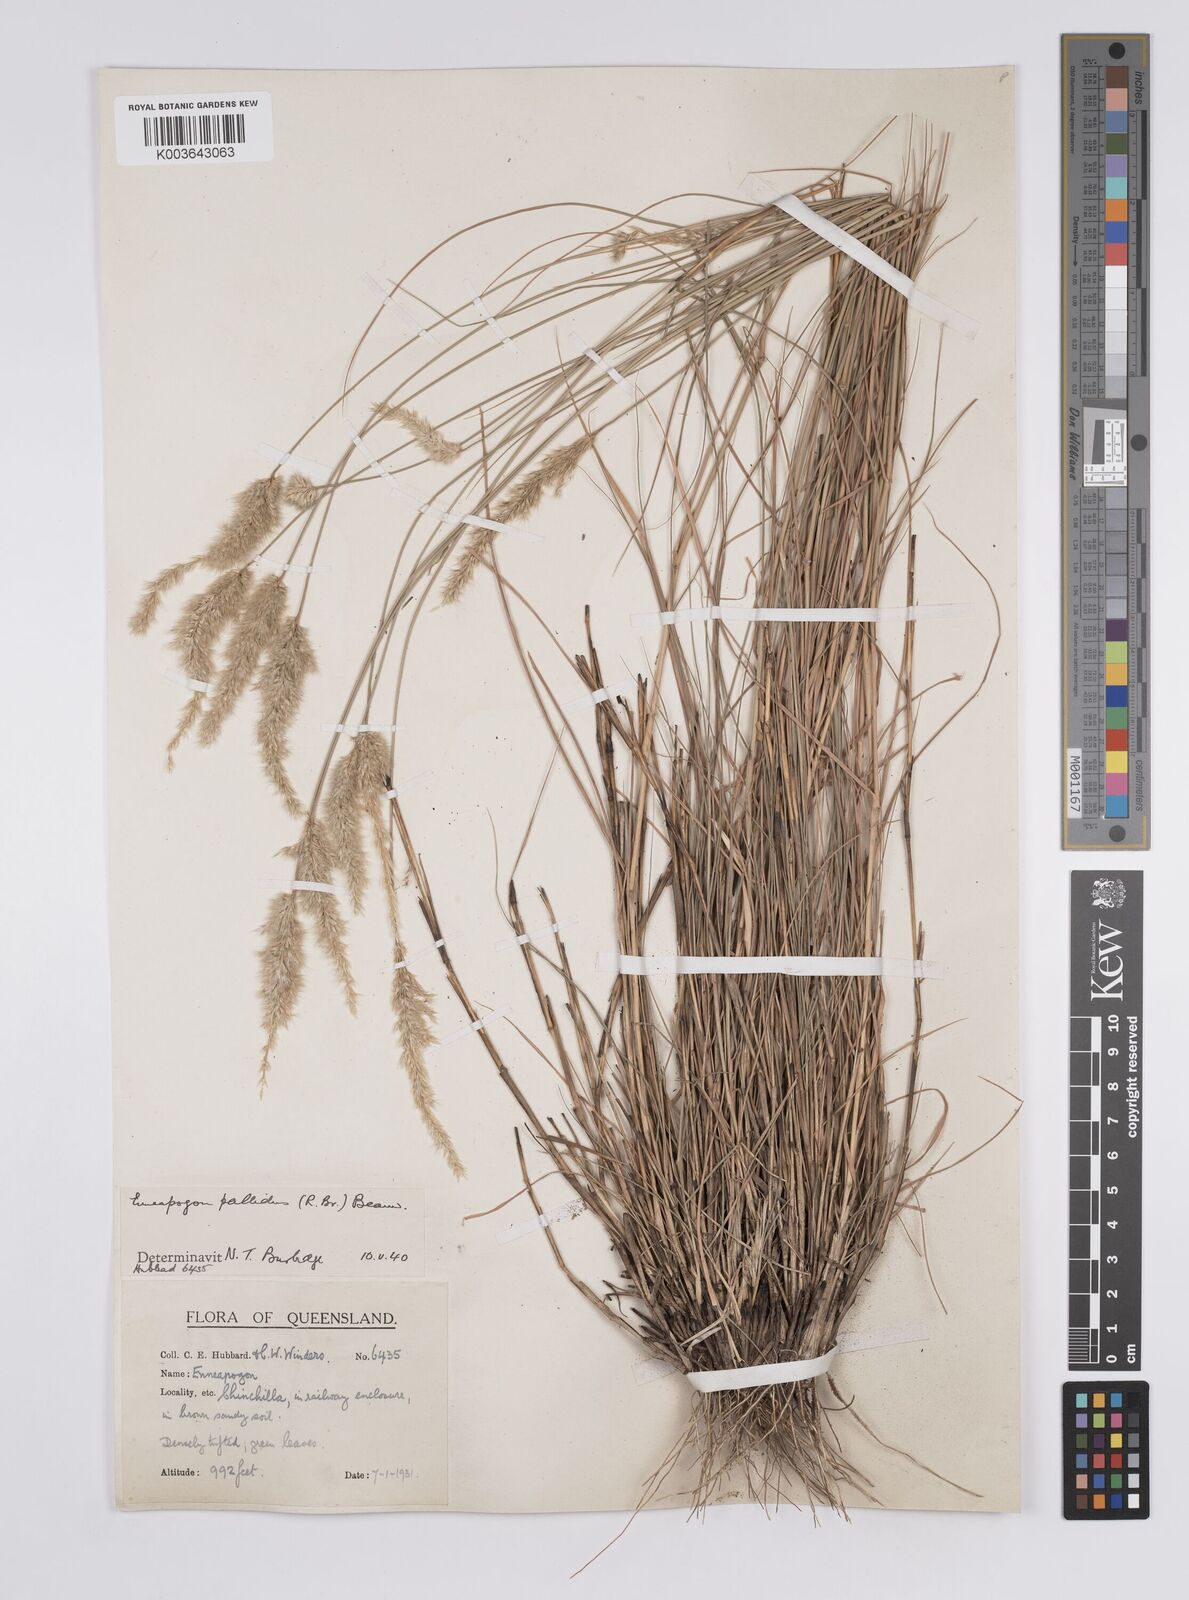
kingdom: Plantae
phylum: Tracheophyta
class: Liliopsida
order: Poales
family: Poaceae
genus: Enneapogon
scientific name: Enneapogon pallidus
